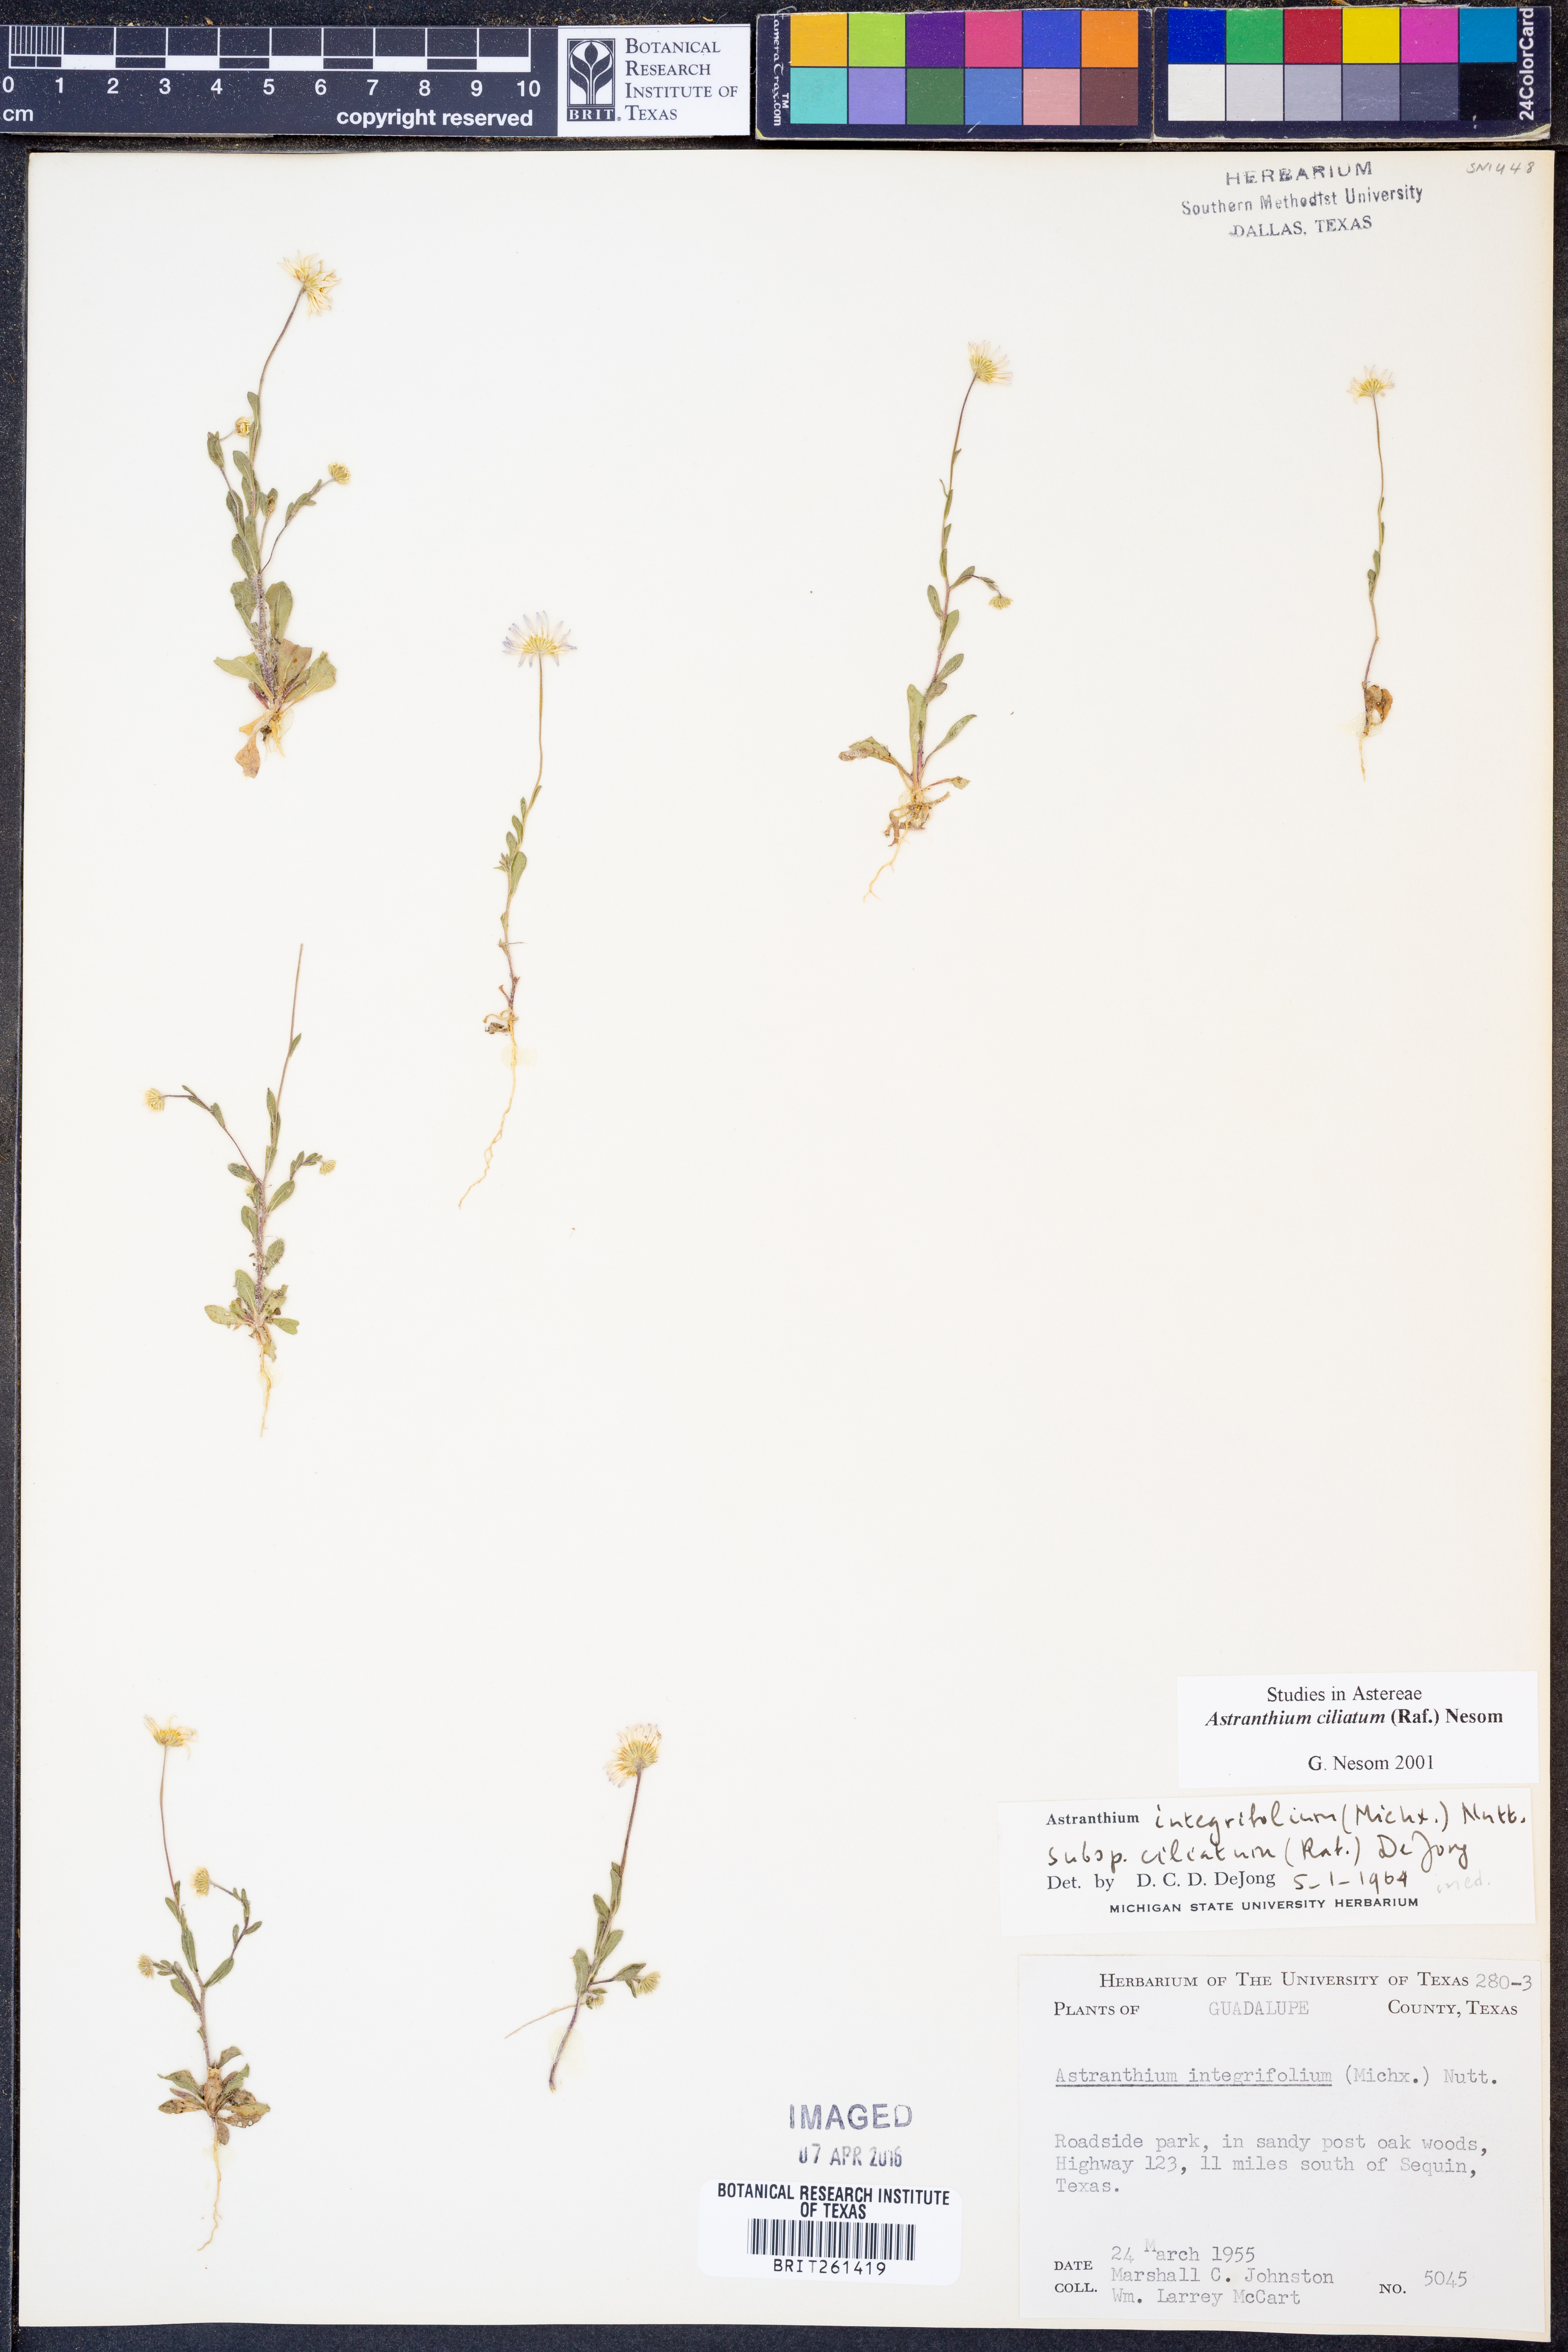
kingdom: Plantae
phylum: Tracheophyta
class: Magnoliopsida
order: Asterales
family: Asteraceae
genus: Astranthium
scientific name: Astranthium ciliatum
